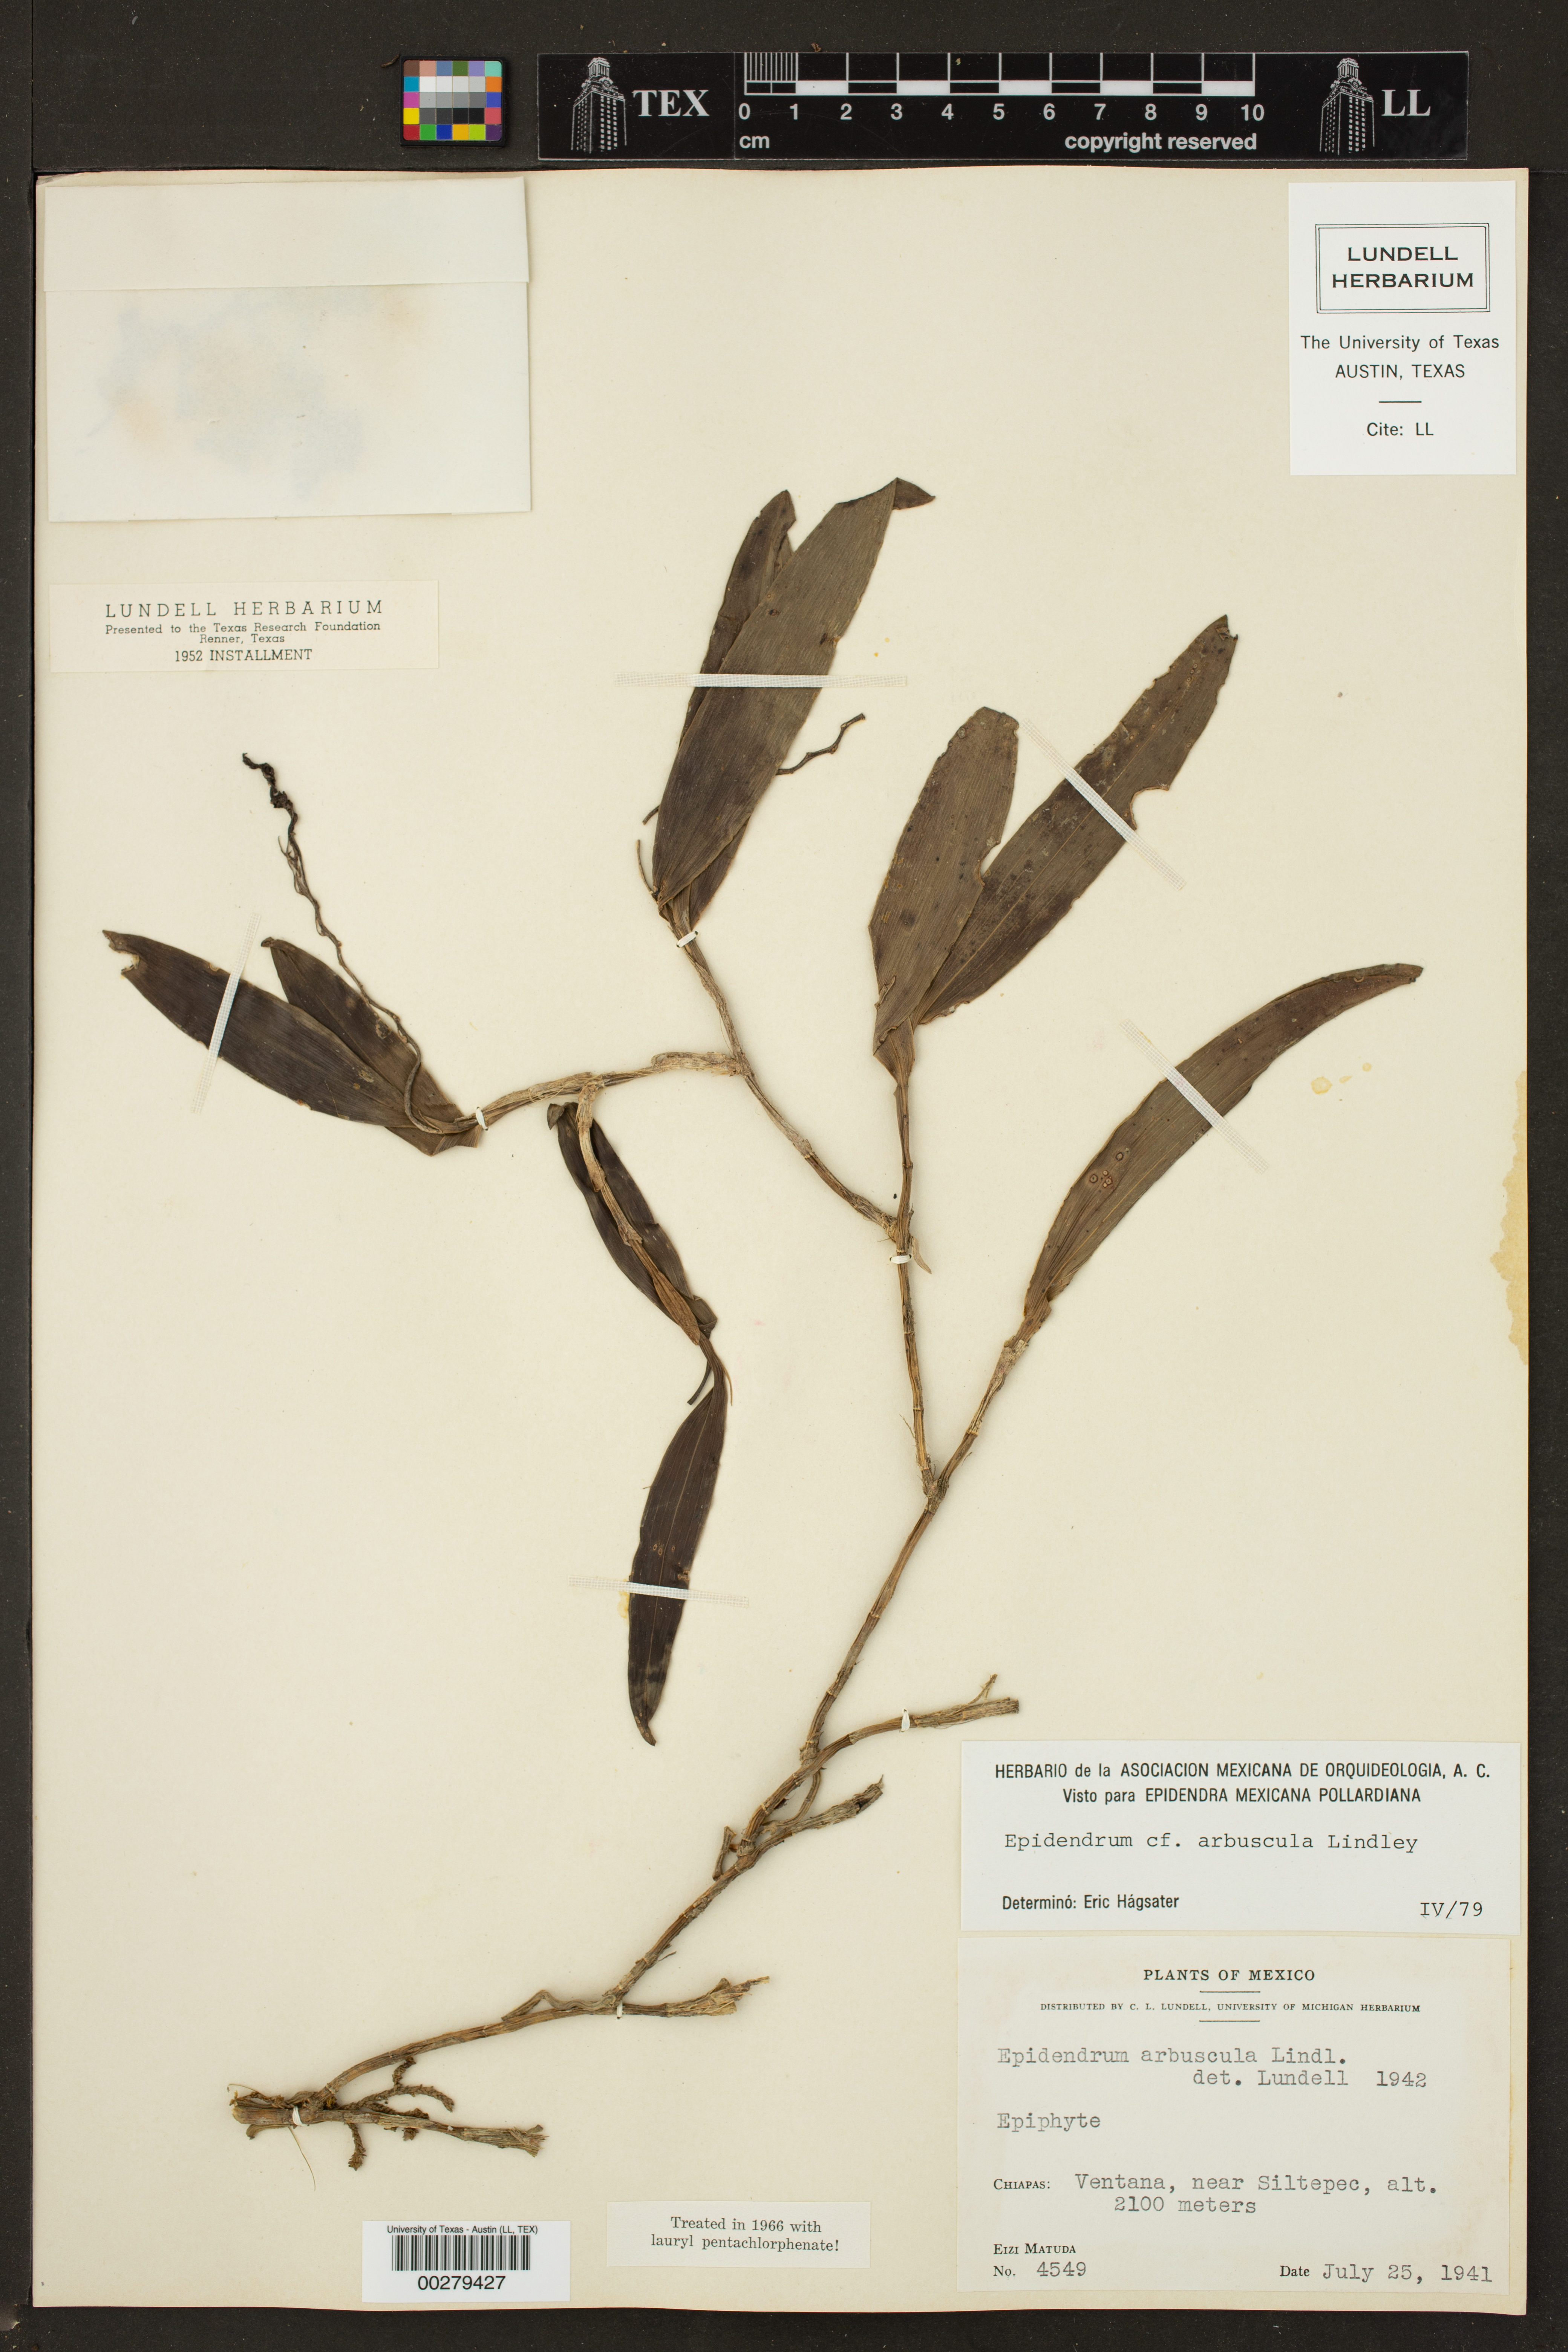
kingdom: Plantae
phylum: Tracheophyta
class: Liliopsida
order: Asparagales
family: Orchidaceae
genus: Epidendrum
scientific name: Epidendrum arbuscula
